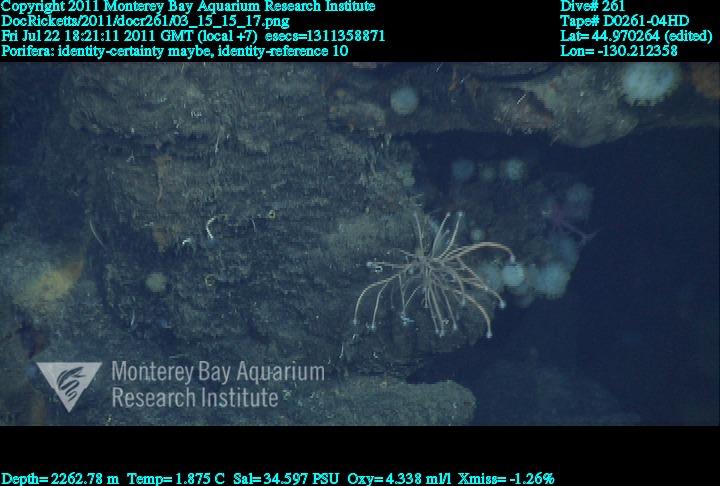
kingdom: Animalia
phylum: Porifera
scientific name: Porifera
